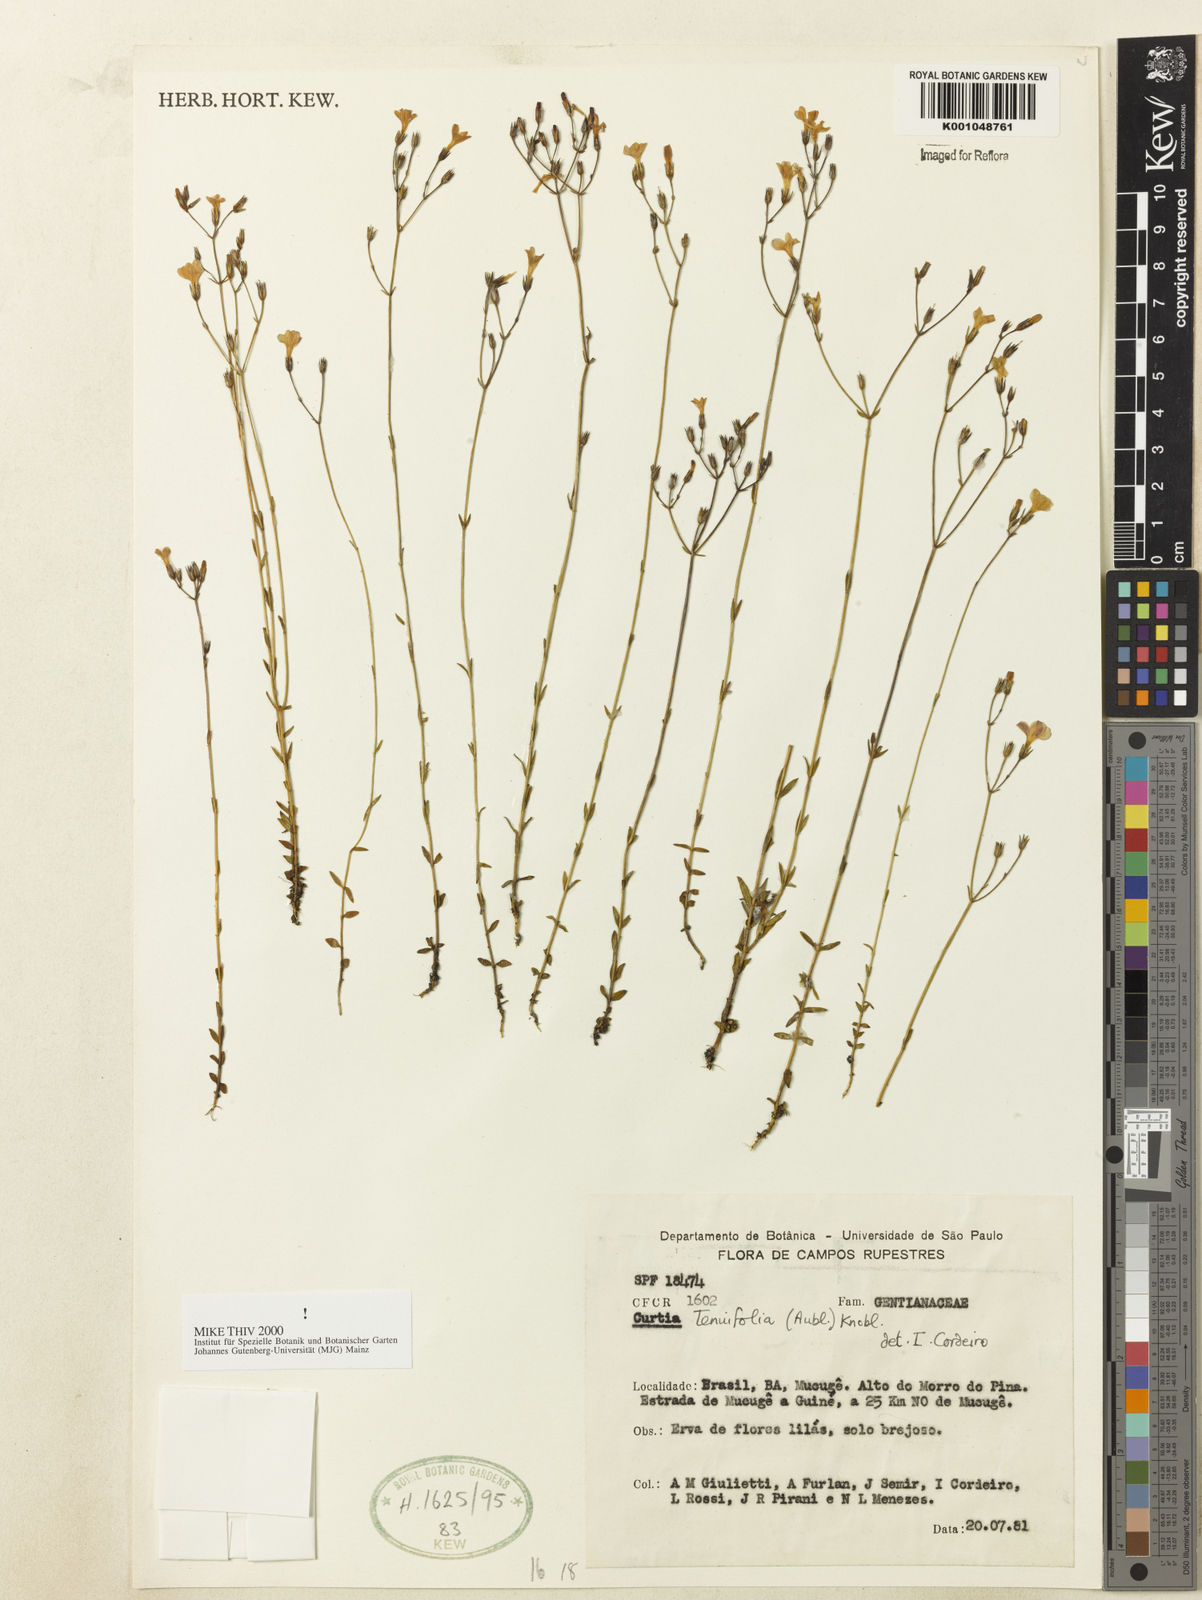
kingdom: Plantae
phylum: Tracheophyta
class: Magnoliopsida
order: Gentianales
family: Gentianaceae
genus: Curtia
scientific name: Curtia tenuifolia
